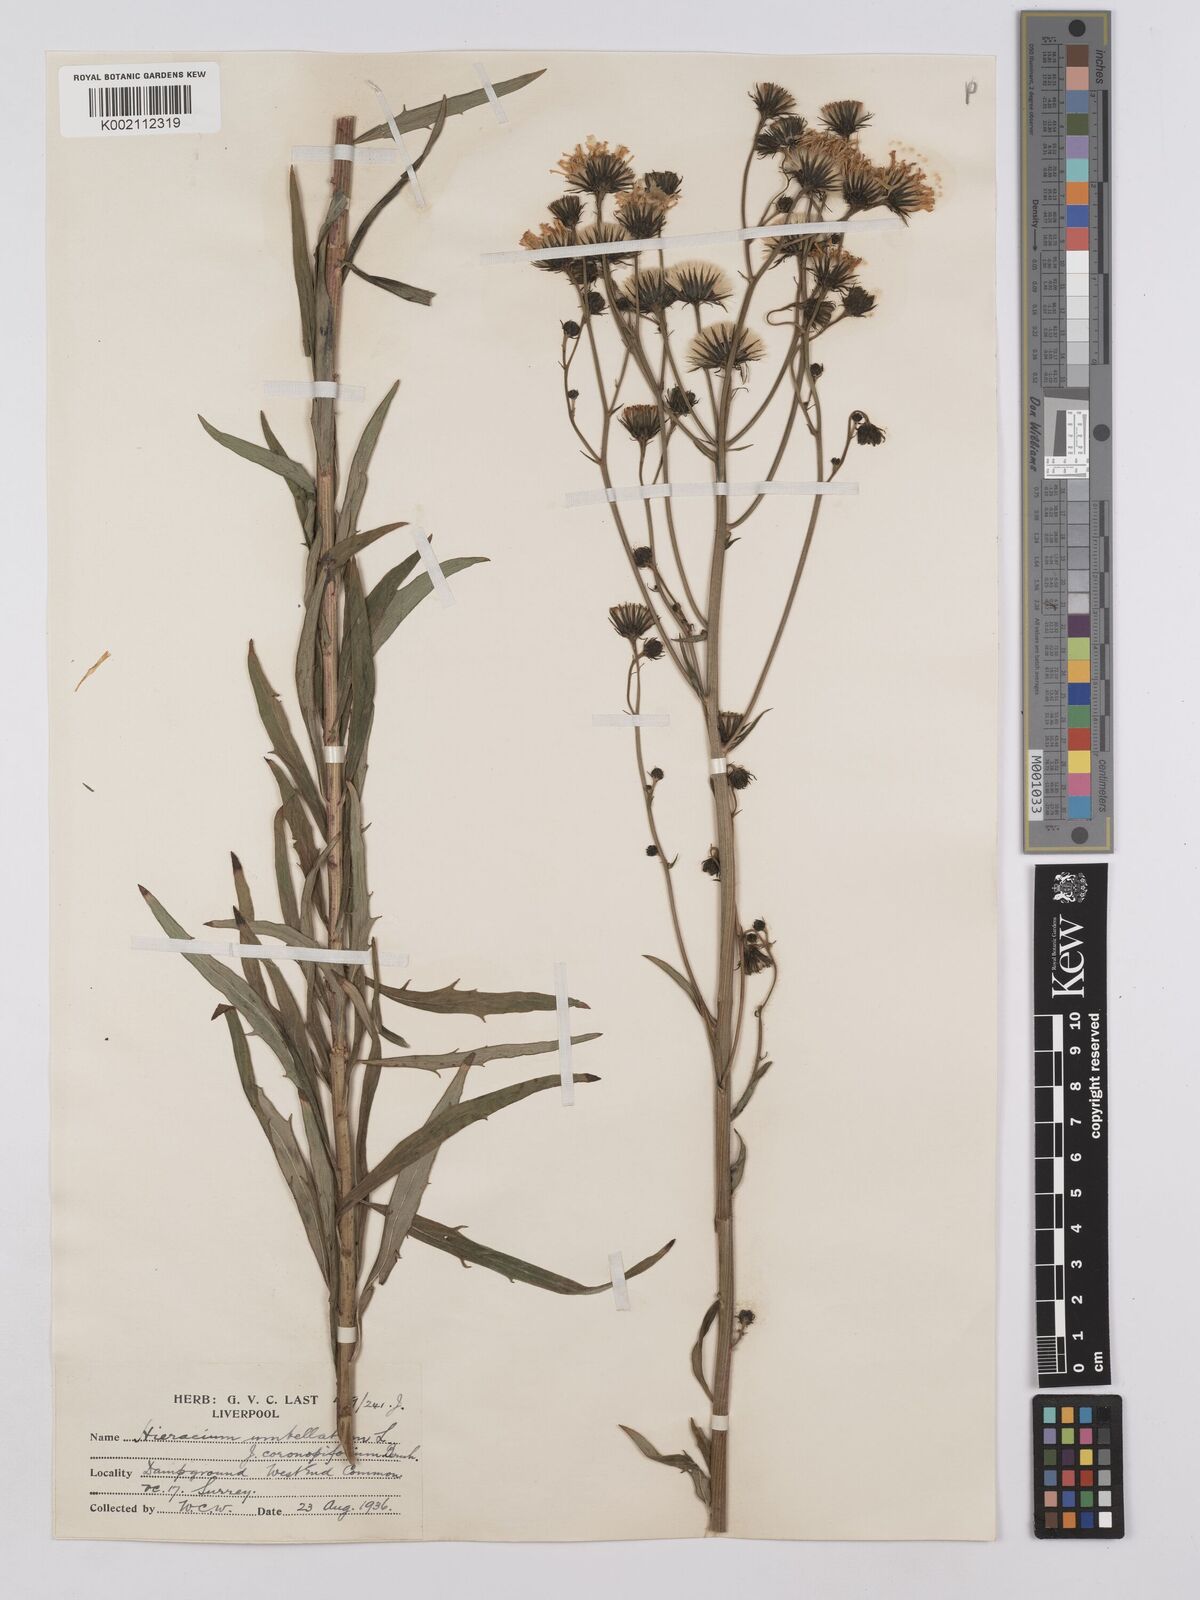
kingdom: Plantae
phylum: Tracheophyta
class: Magnoliopsida
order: Asterales
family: Asteraceae
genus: Hieracium
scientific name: Hieracium umbellatum
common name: Northern hawkweed
